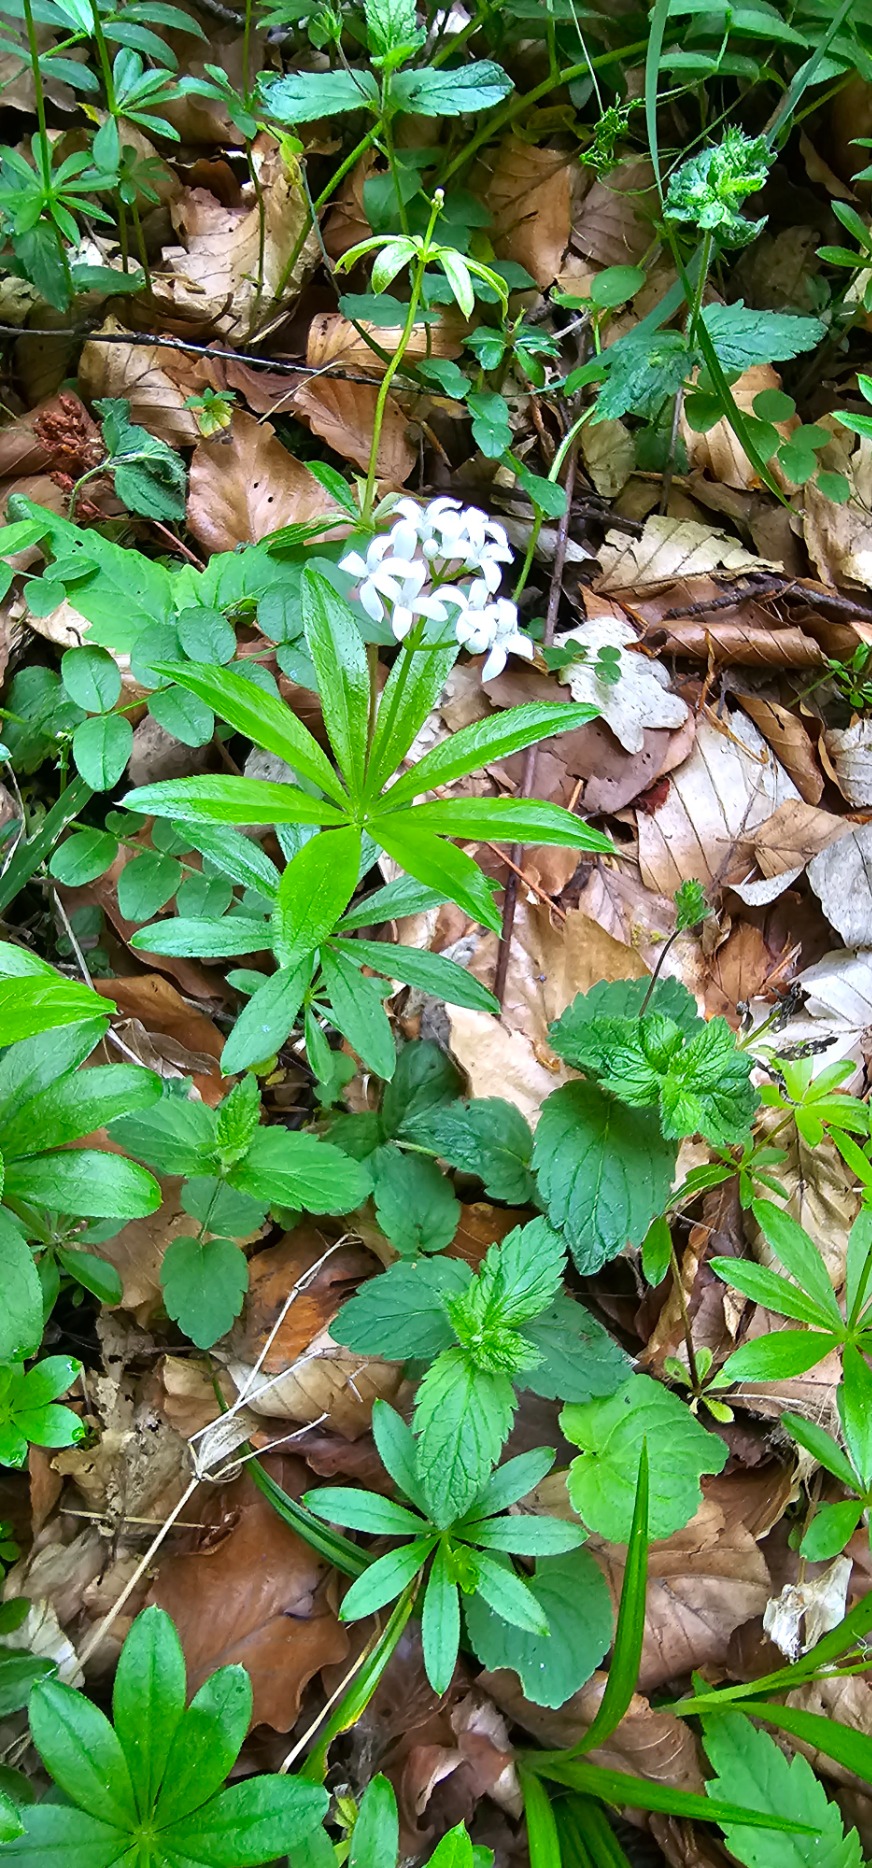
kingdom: Plantae
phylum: Tracheophyta
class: Magnoliopsida
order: Gentianales
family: Rubiaceae
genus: Galium
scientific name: Galium odoratum
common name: Skovmærke
